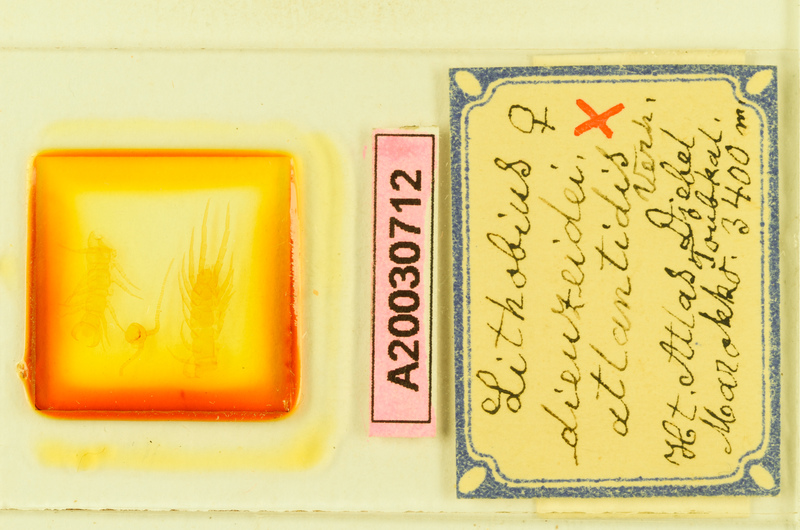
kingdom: Animalia
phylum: Arthropoda
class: Chilopoda
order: Lithobiomorpha
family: Lithobiidae
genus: Lithobius
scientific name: Lithobius alluaudi
